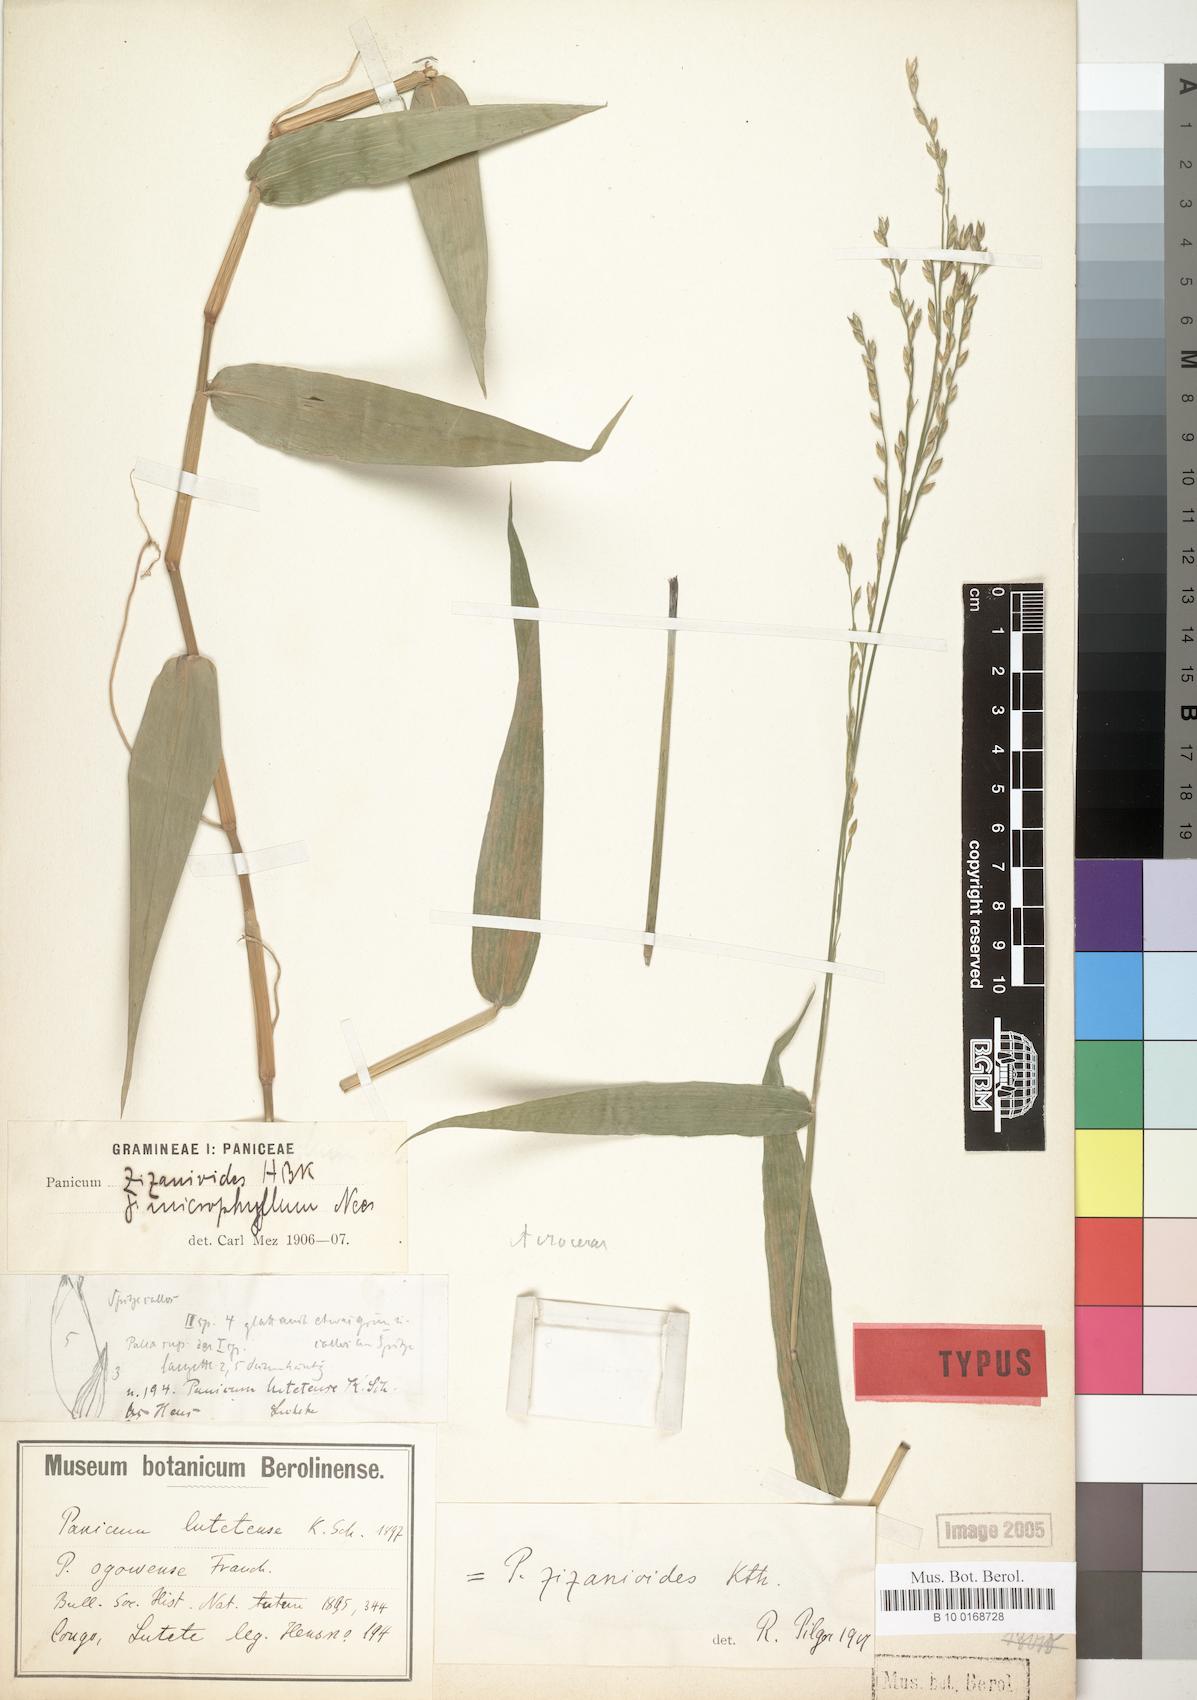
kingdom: Plantae
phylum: Tracheophyta
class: Liliopsida
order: Poales
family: Poaceae
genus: Acroceras
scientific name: Acroceras zizanioides
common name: Oat grass
